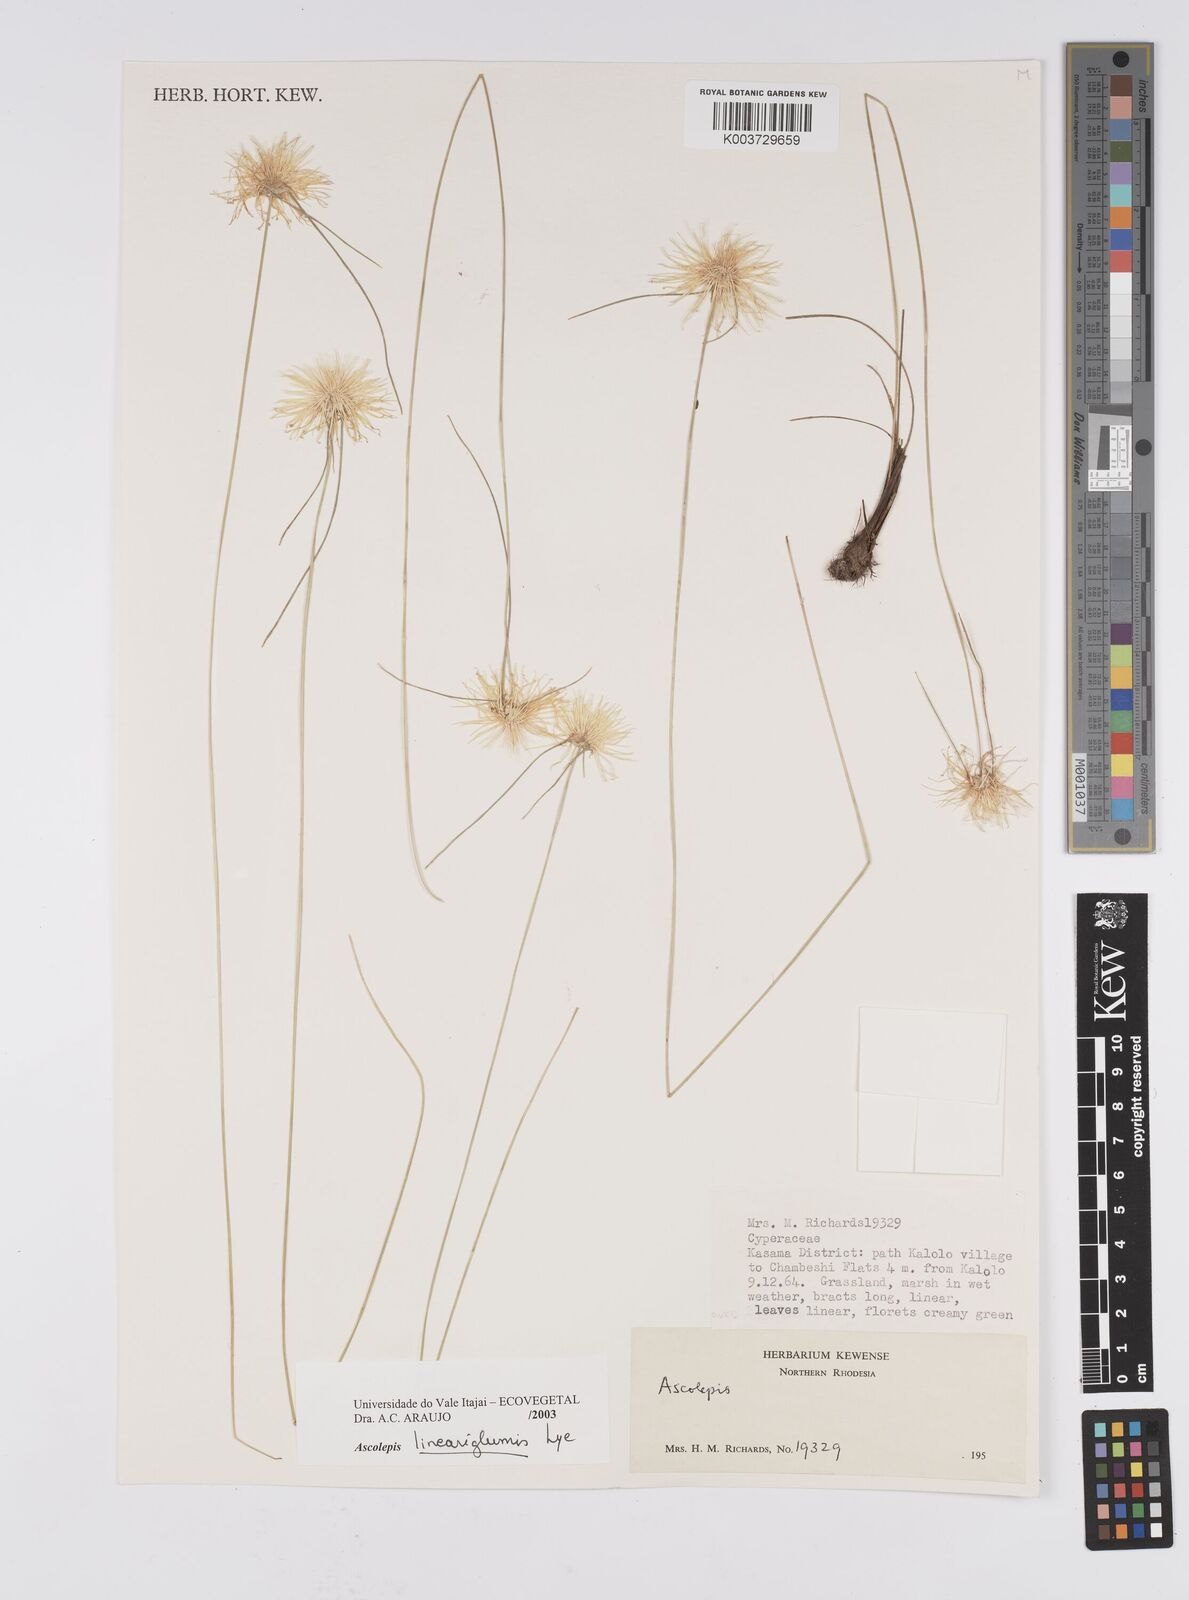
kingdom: Plantae
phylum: Tracheophyta
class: Liliopsida
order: Poales
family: Cyperaceae
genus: Cyperus
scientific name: Cyperus
